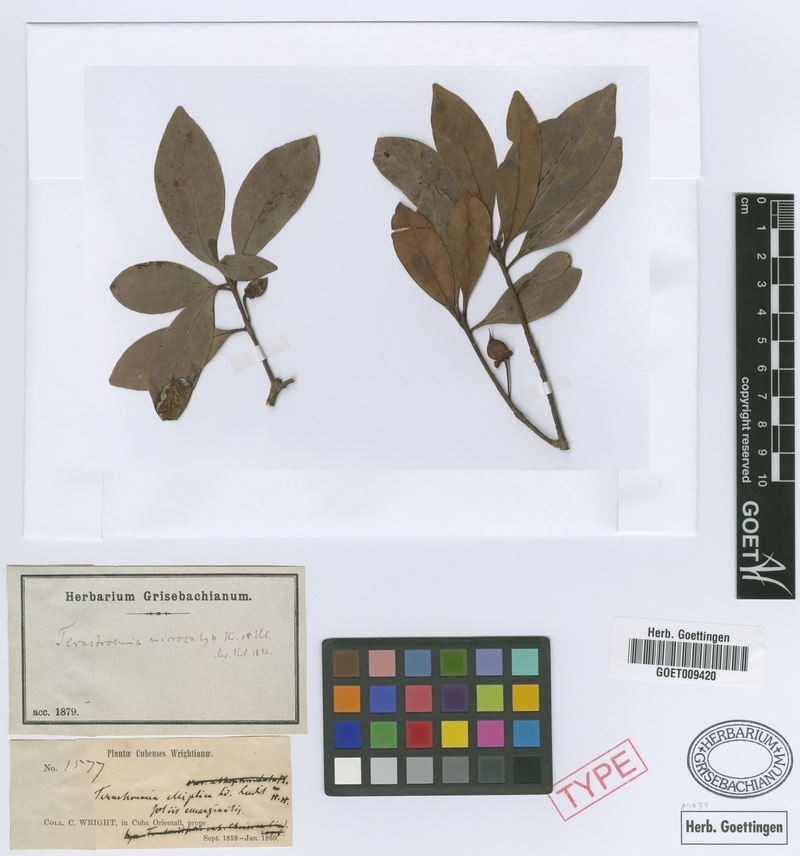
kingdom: Plantae
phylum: Tracheophyta
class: Magnoliopsida
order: Ericales
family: Pentaphylacaceae
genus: Ternstroemia
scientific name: Ternstroemia microcalyx
